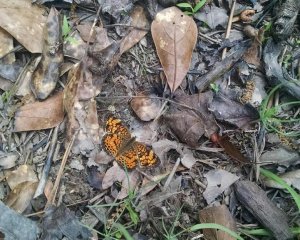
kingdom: Animalia
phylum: Arthropoda
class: Insecta
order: Lepidoptera
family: Nymphalidae
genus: Phyciodes
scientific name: Phyciodes tharos
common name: Pearl Crescent
